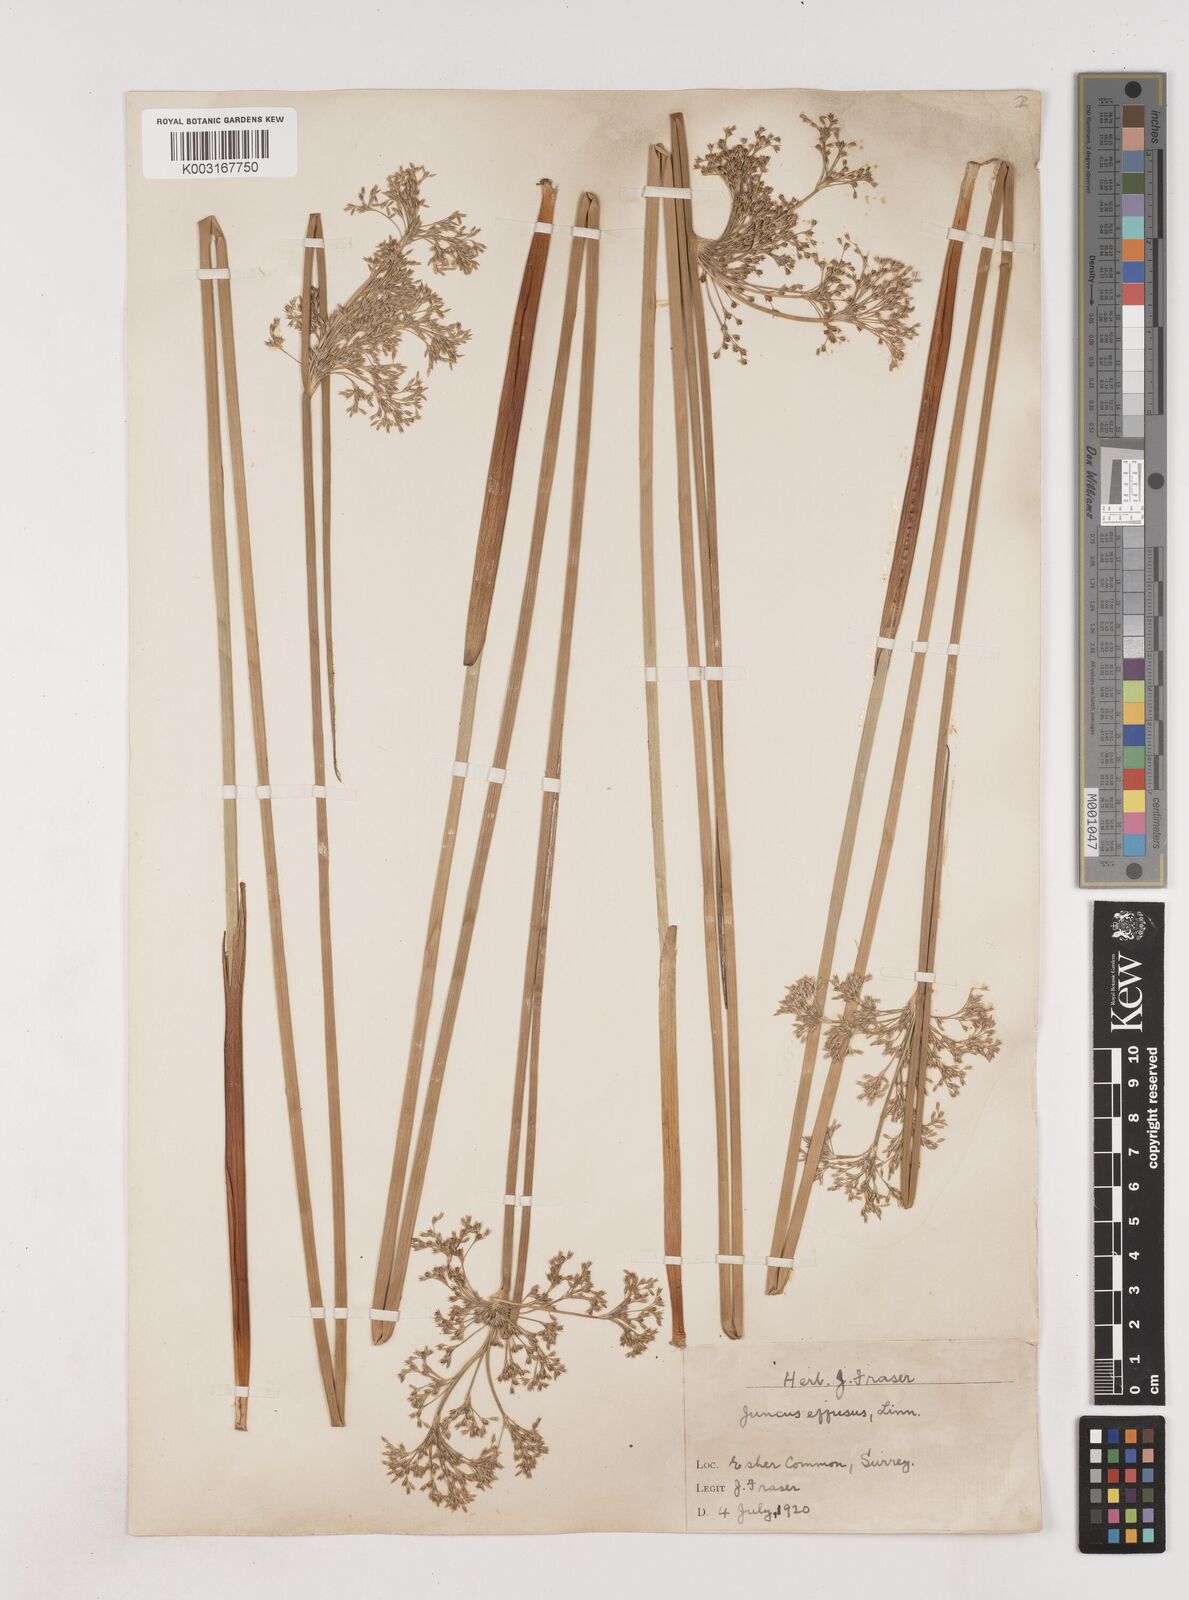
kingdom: Plantae
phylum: Tracheophyta
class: Liliopsida
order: Poales
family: Juncaceae
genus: Juncus
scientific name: Juncus effusus
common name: Soft rush
